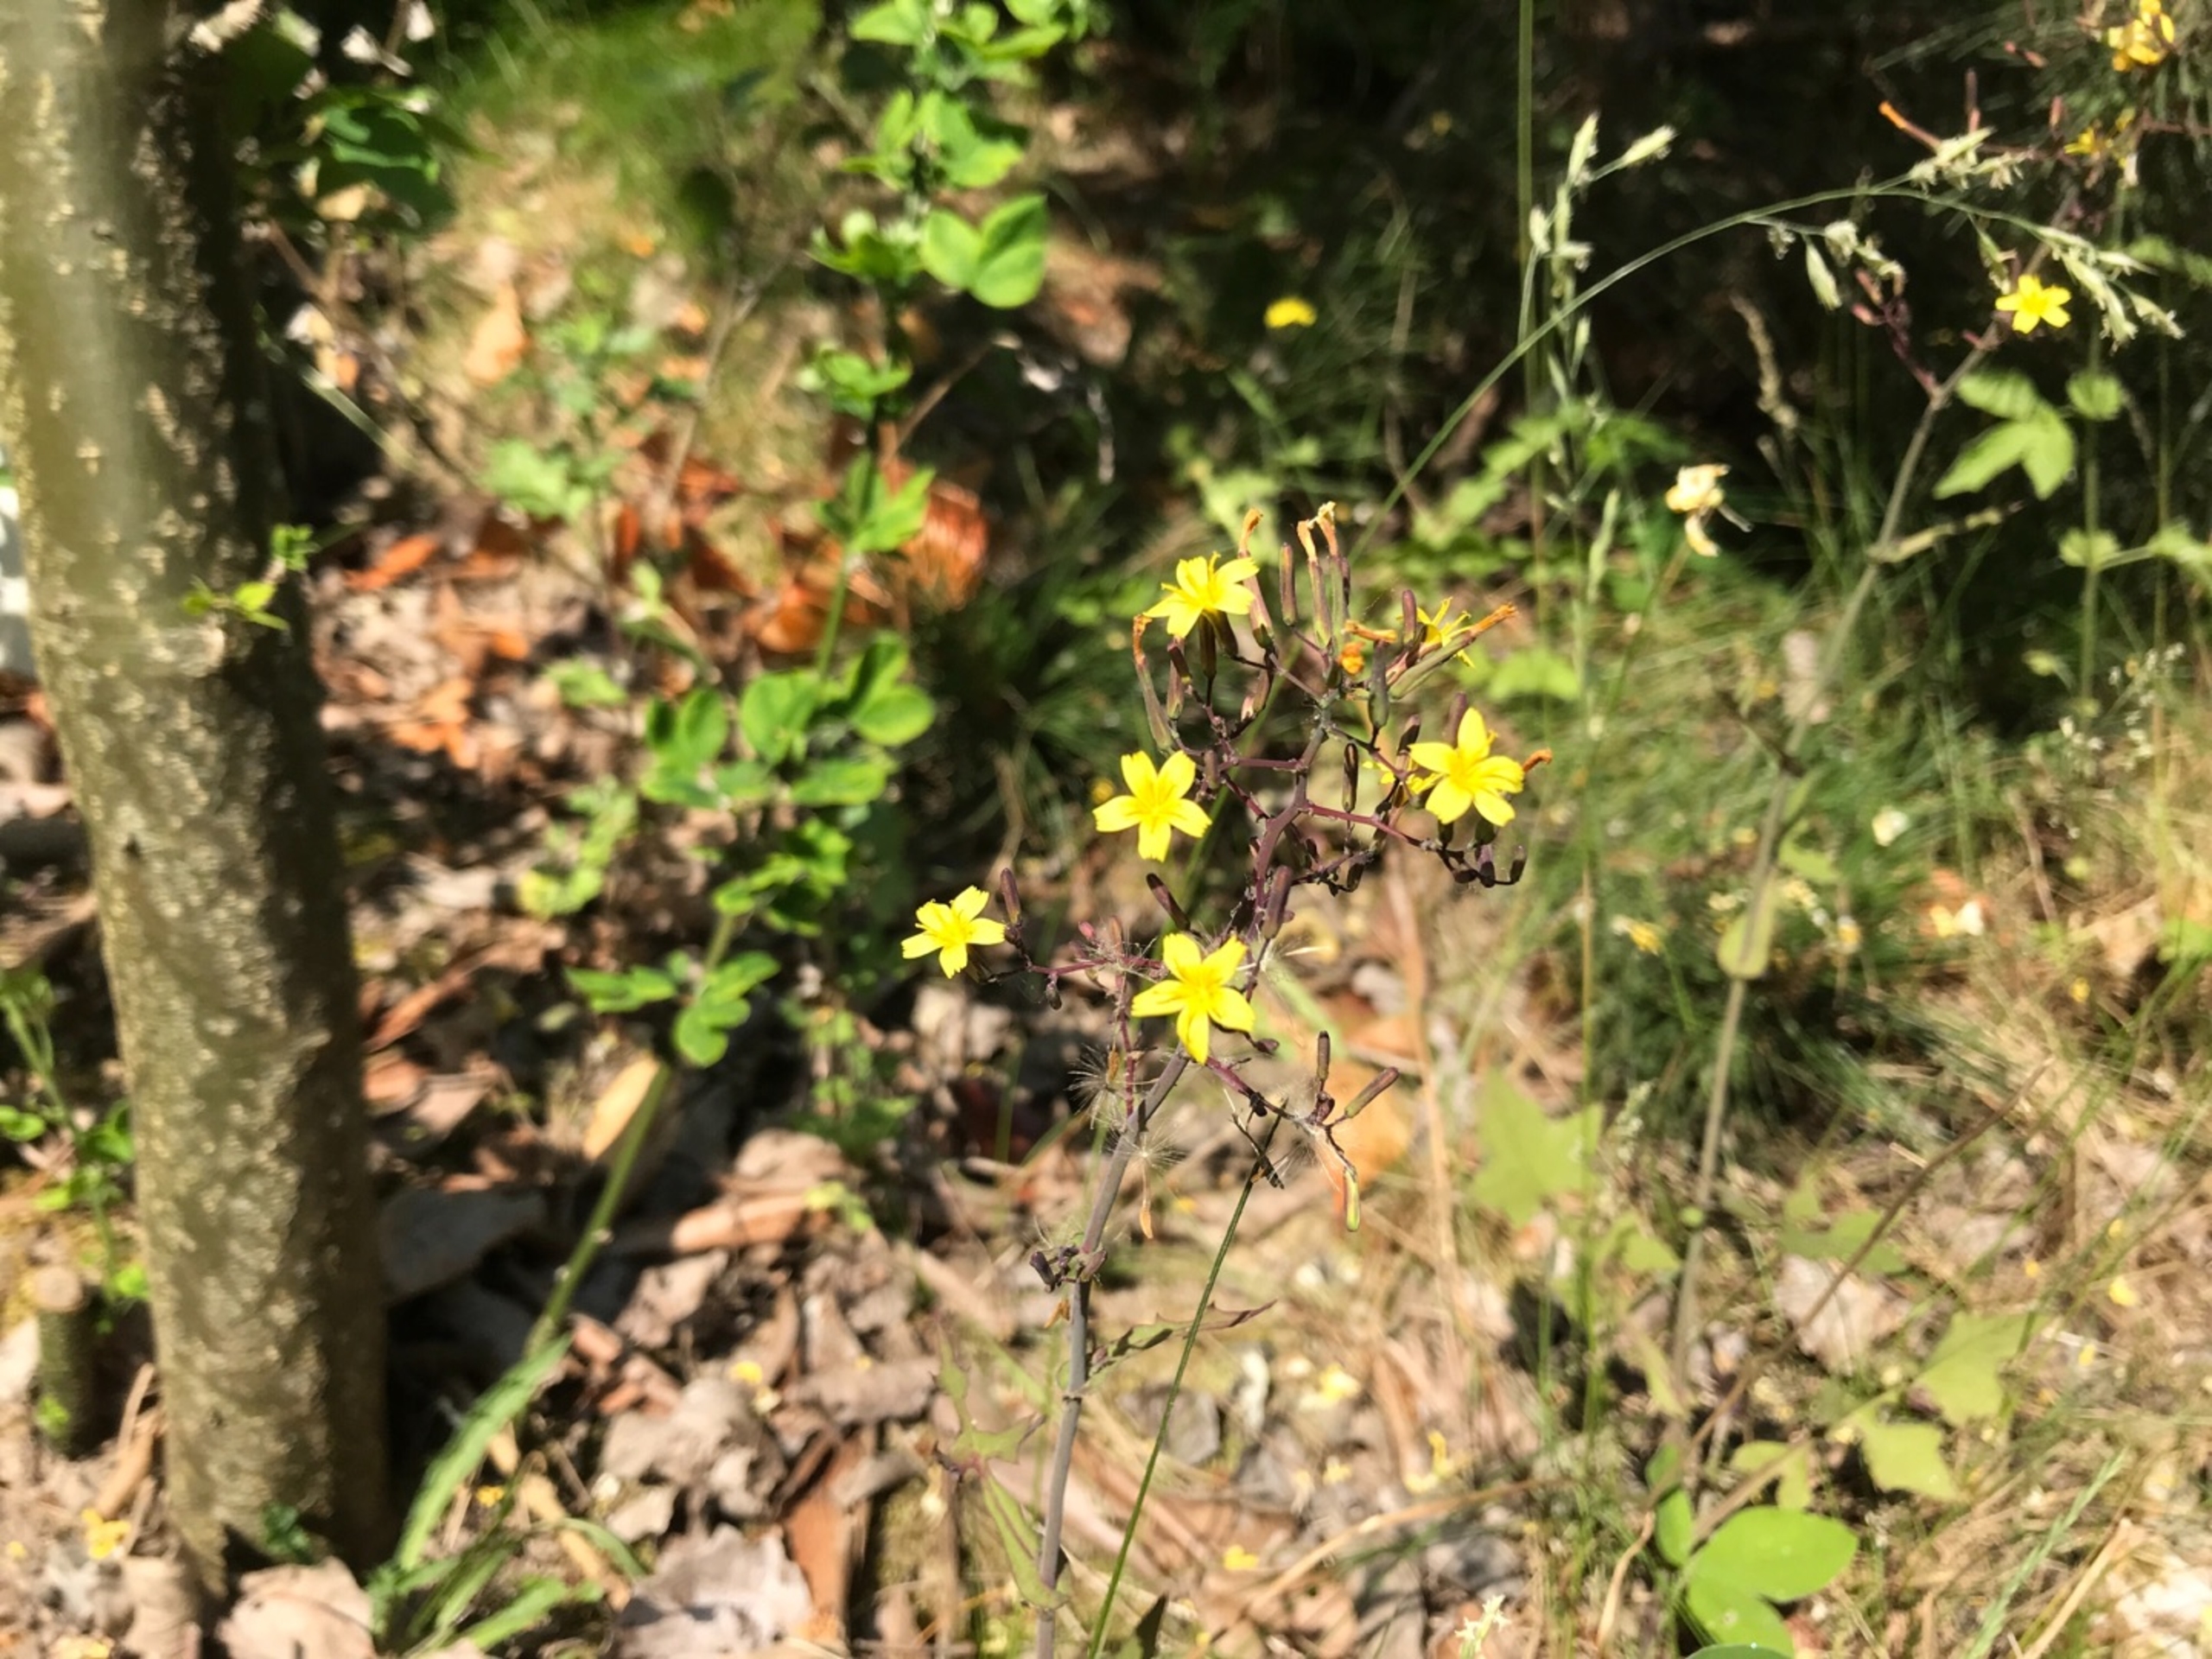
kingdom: Plantae
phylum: Tracheophyta
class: Magnoliopsida
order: Asterales
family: Asteraceae
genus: Mycelis
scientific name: Mycelis muralis
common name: Skov-salat
